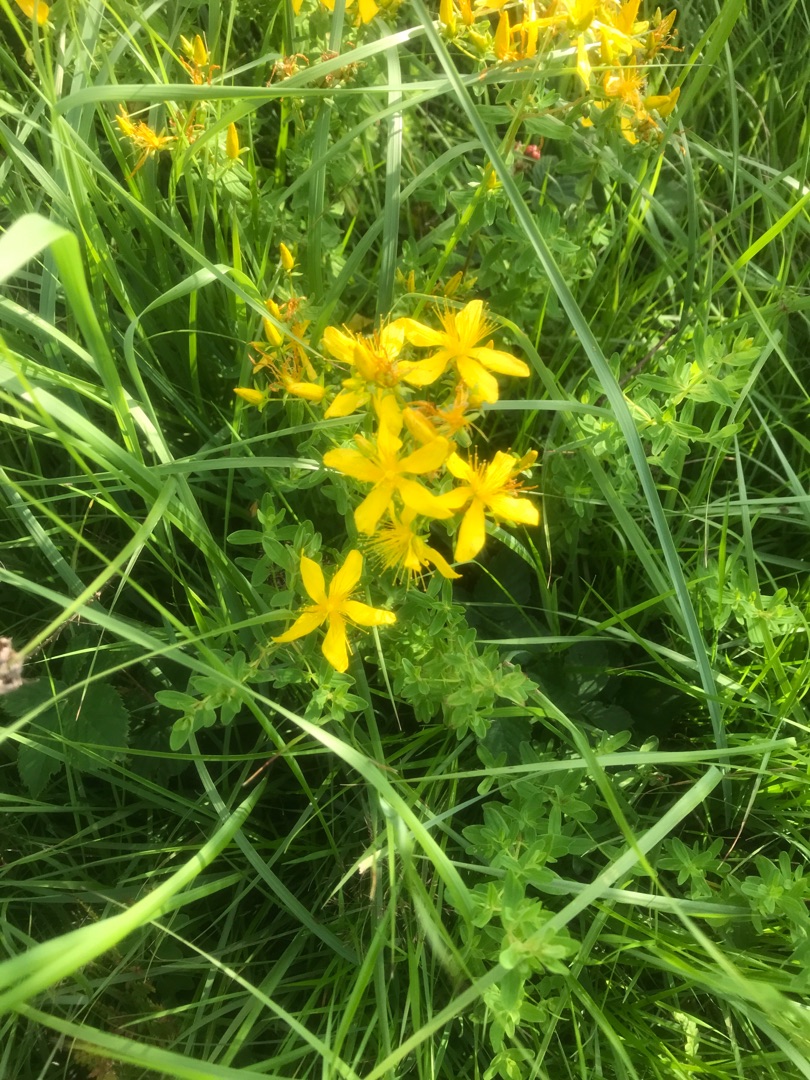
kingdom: Plantae
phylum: Tracheophyta
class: Magnoliopsida
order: Malpighiales
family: Hypericaceae
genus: Hypericum
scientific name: Hypericum perforatum
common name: Prikbladet perikon
